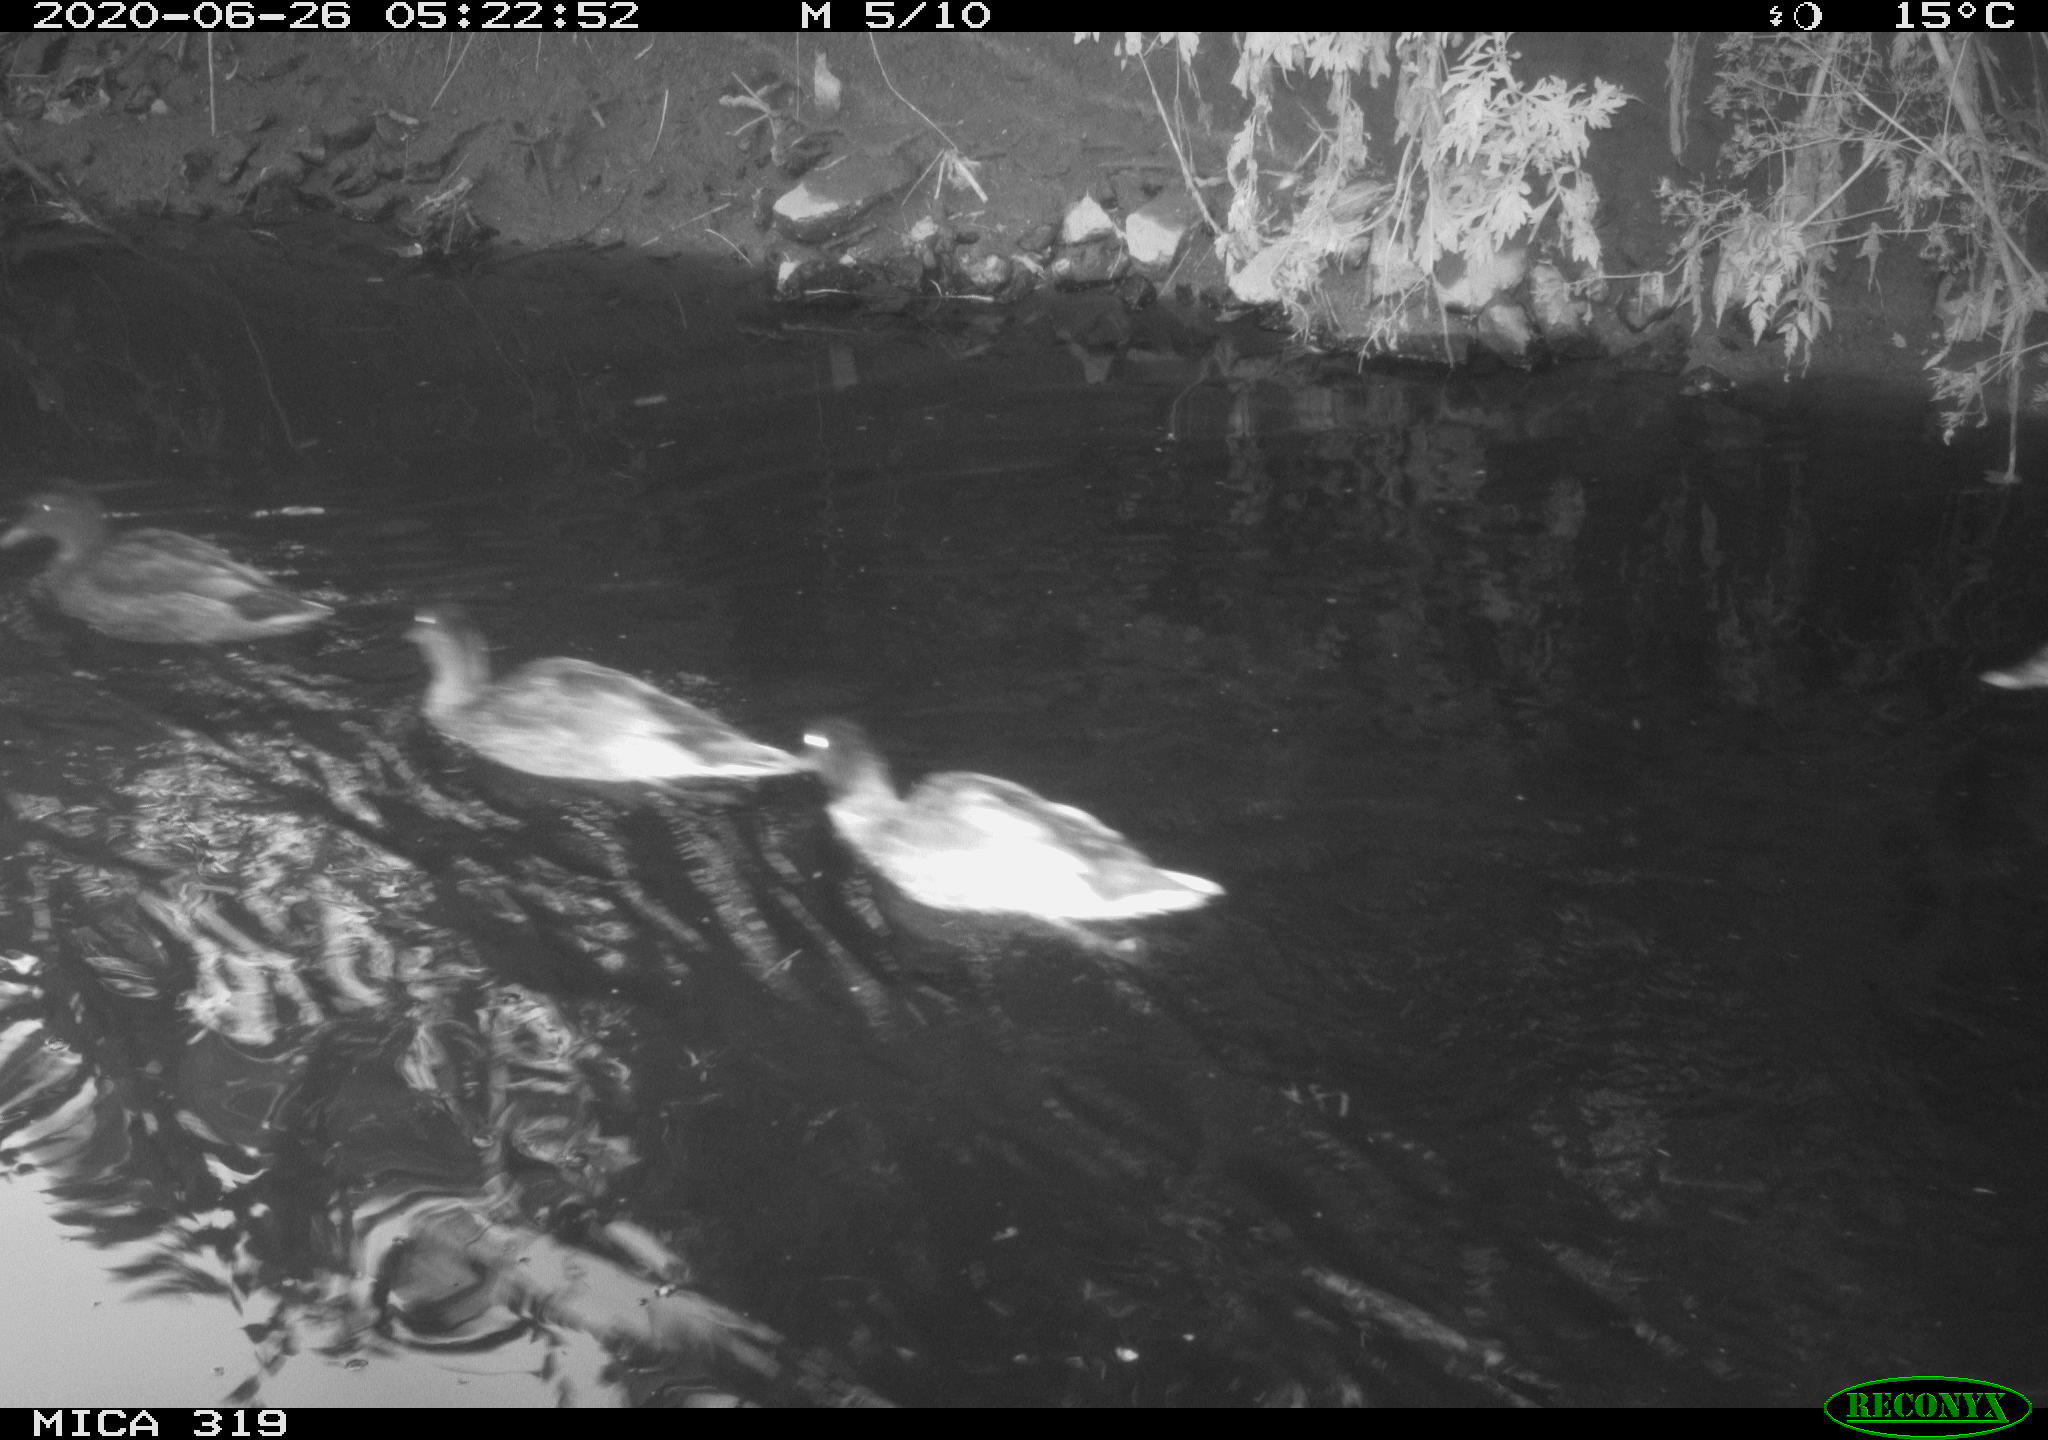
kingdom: Animalia
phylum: Chordata
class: Aves
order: Anseriformes
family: Anatidae
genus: Anas
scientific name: Anas platyrhynchos
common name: Mallard
